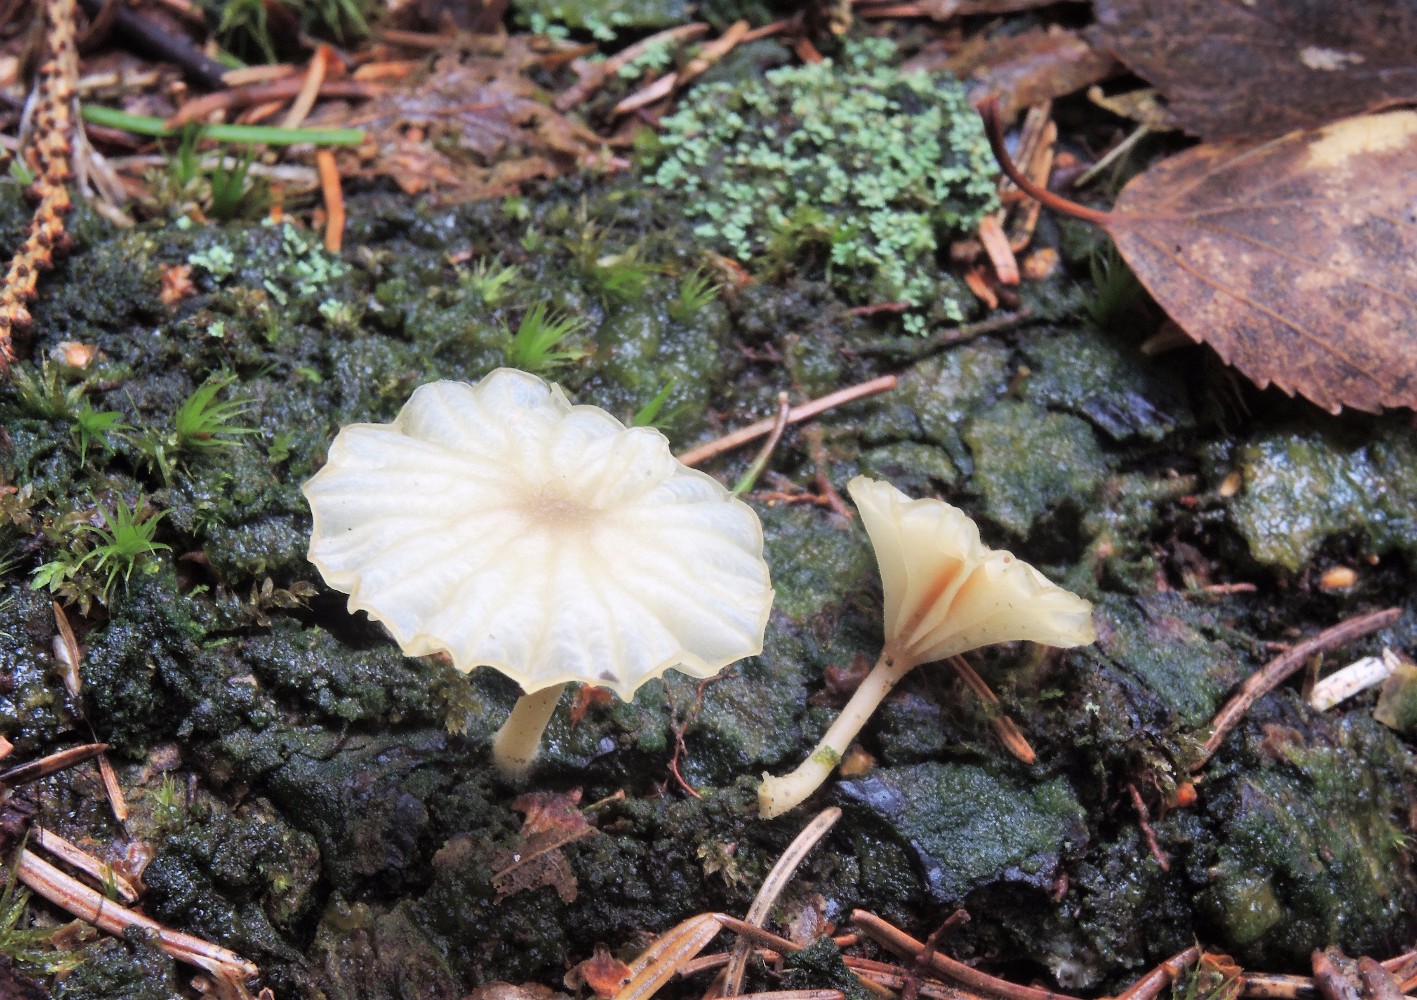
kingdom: Fungi
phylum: Basidiomycota
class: Agaricomycetes
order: Agaricales
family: Hygrophoraceae
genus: Lichenomphalia
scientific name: Lichenomphalia umbellifera
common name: tørve-lavhat
